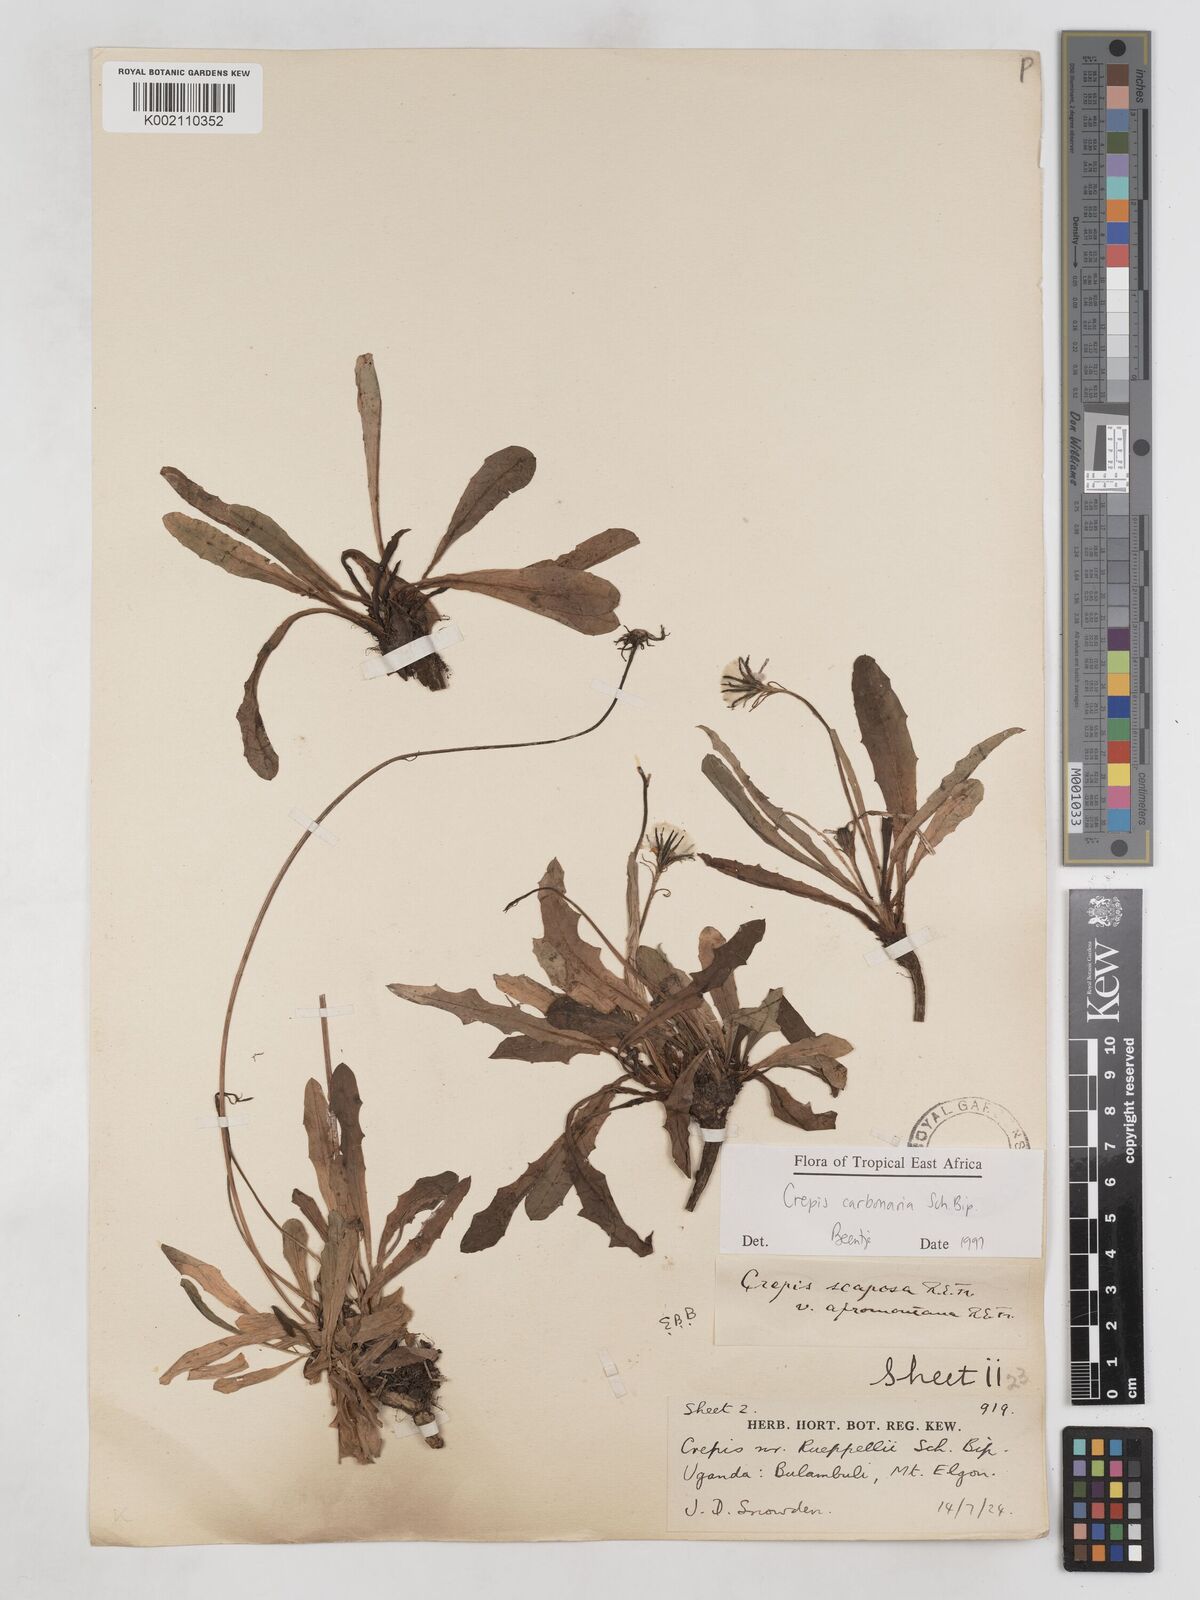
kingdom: Plantae
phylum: Tracheophyta
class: Magnoliopsida
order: Asterales
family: Asteraceae
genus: Crepis
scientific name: Crepis carbonaria
